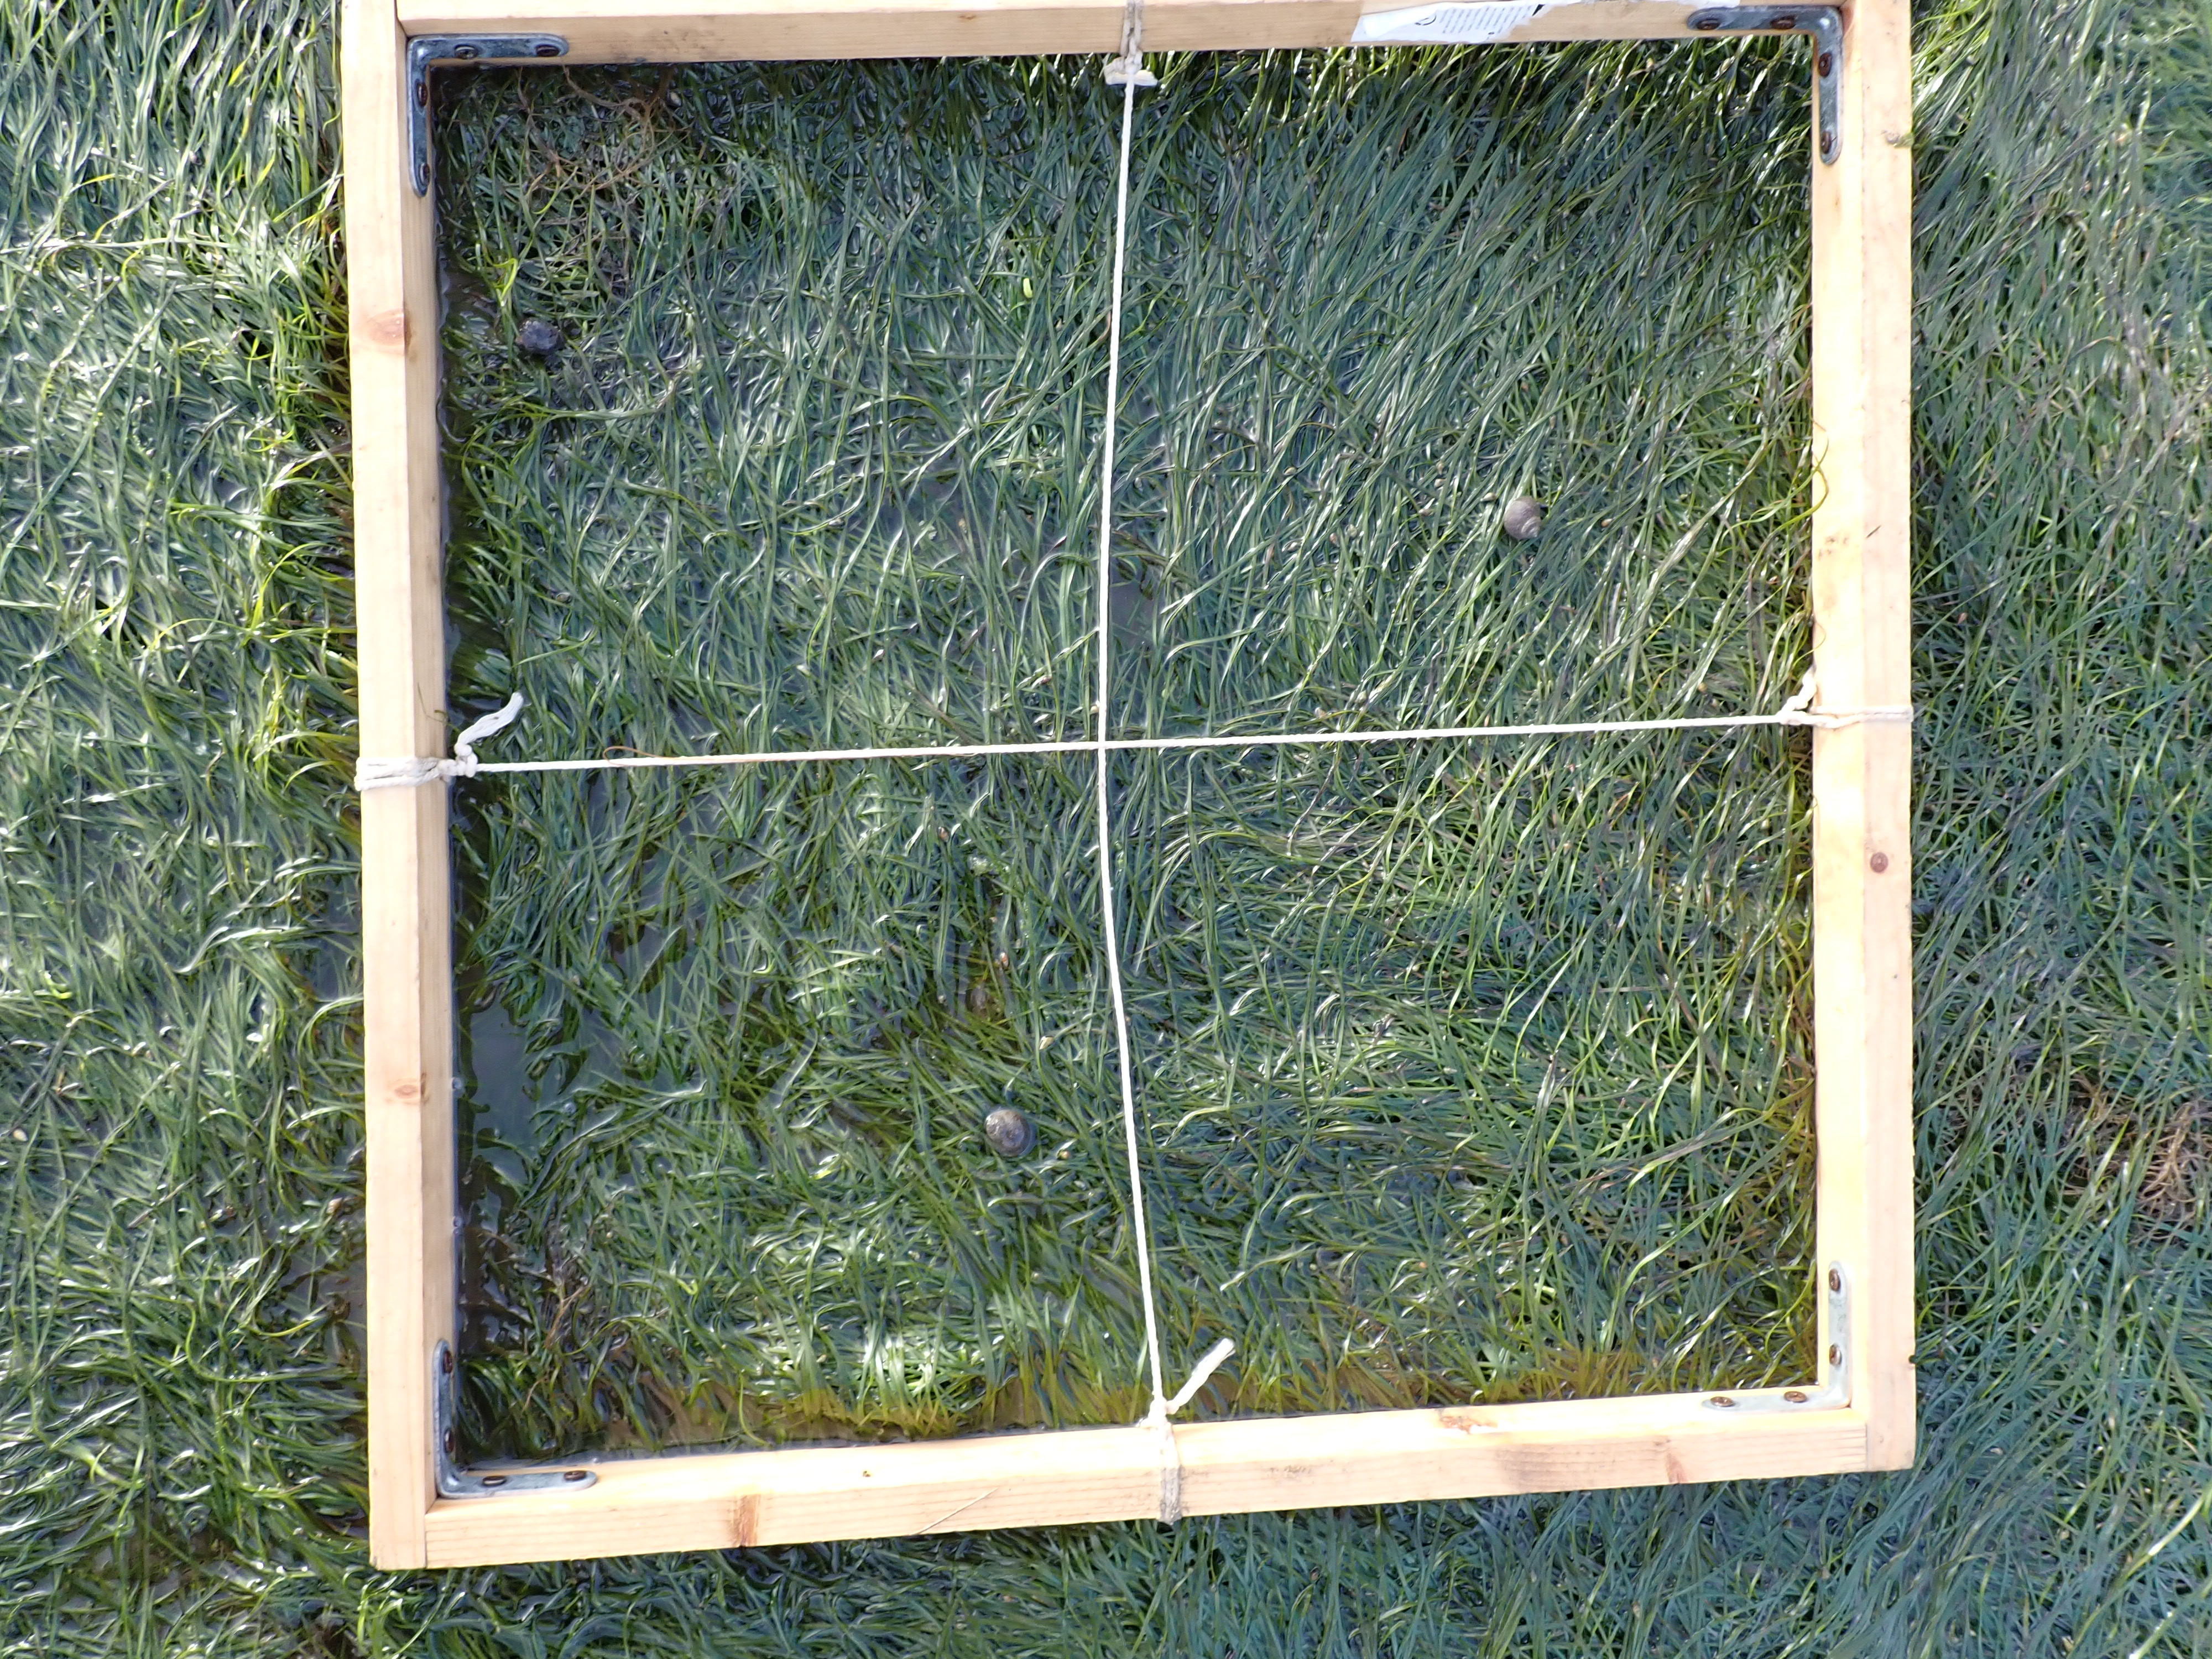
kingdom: Plantae
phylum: Tracheophyta
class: Liliopsida
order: Alismatales
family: Zosteraceae
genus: Zostera
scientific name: Zostera noltii
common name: Dwarf eelgrass
